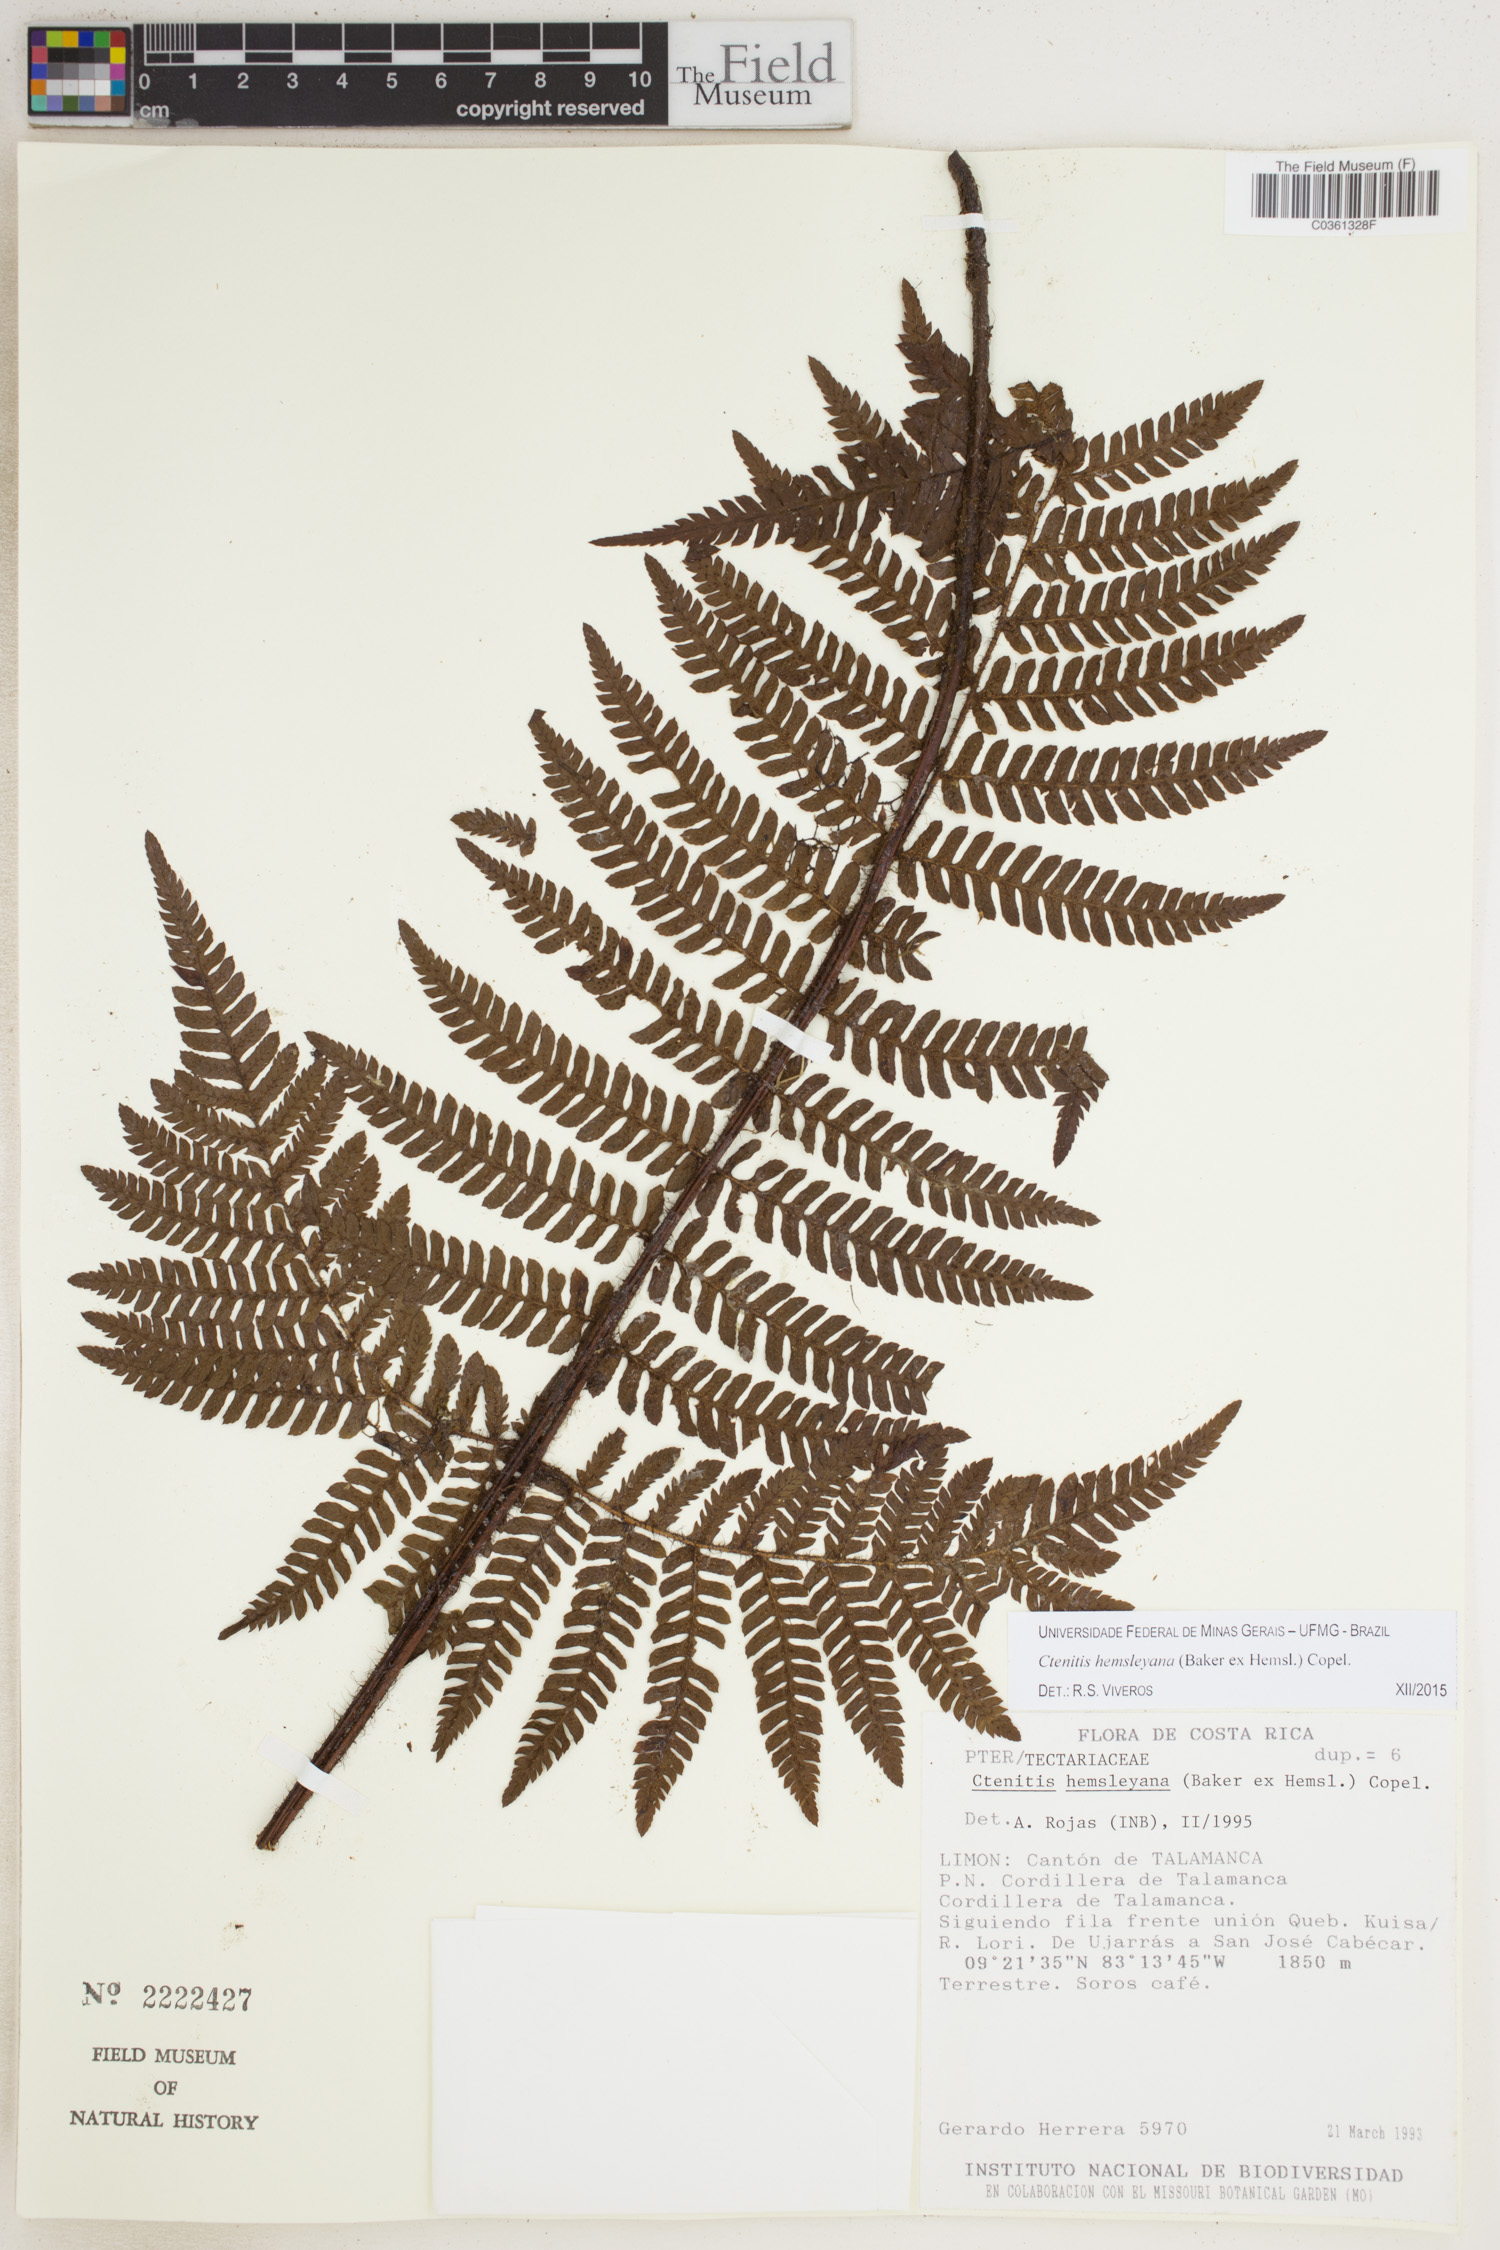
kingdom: Plantae
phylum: Tracheophyta
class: Polypodiopsida
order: Polypodiales
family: Dryopteridaceae
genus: Ctenitis
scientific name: Ctenitis hemsleyana
